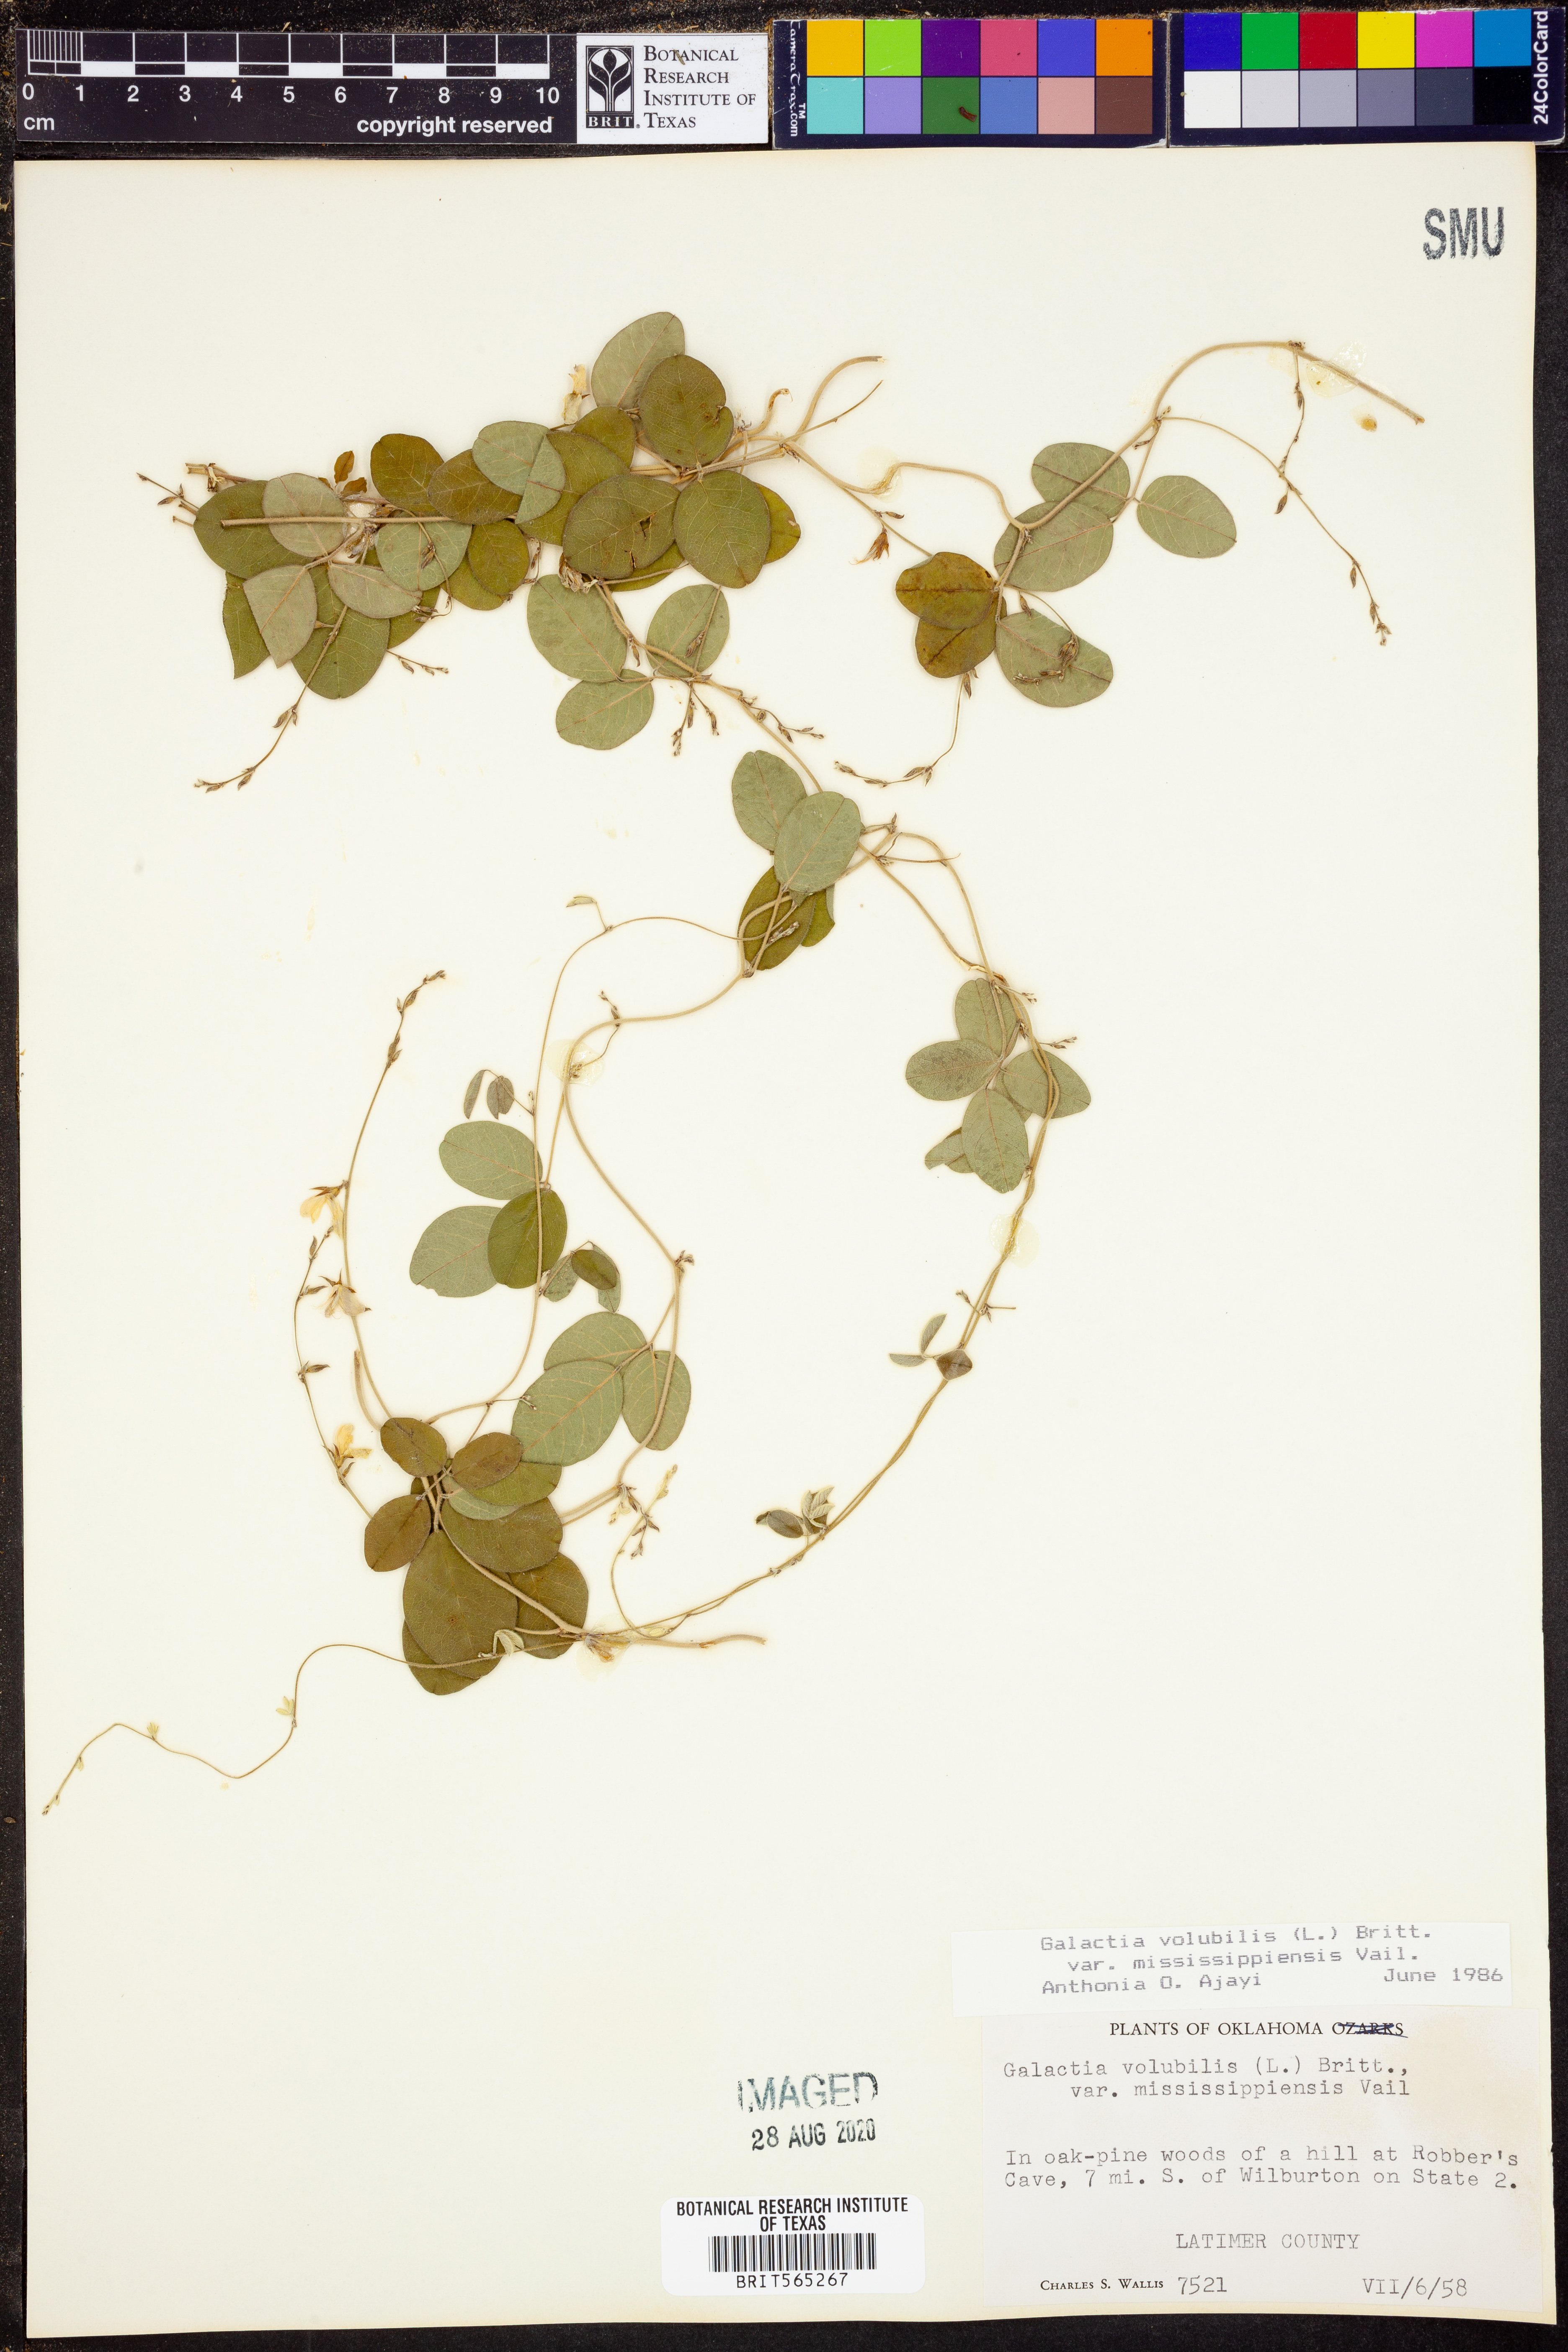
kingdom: Plantae
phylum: Tracheophyta
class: Magnoliopsida
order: Fabales
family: Fabaceae
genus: Galactia
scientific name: Galactia volubilis
